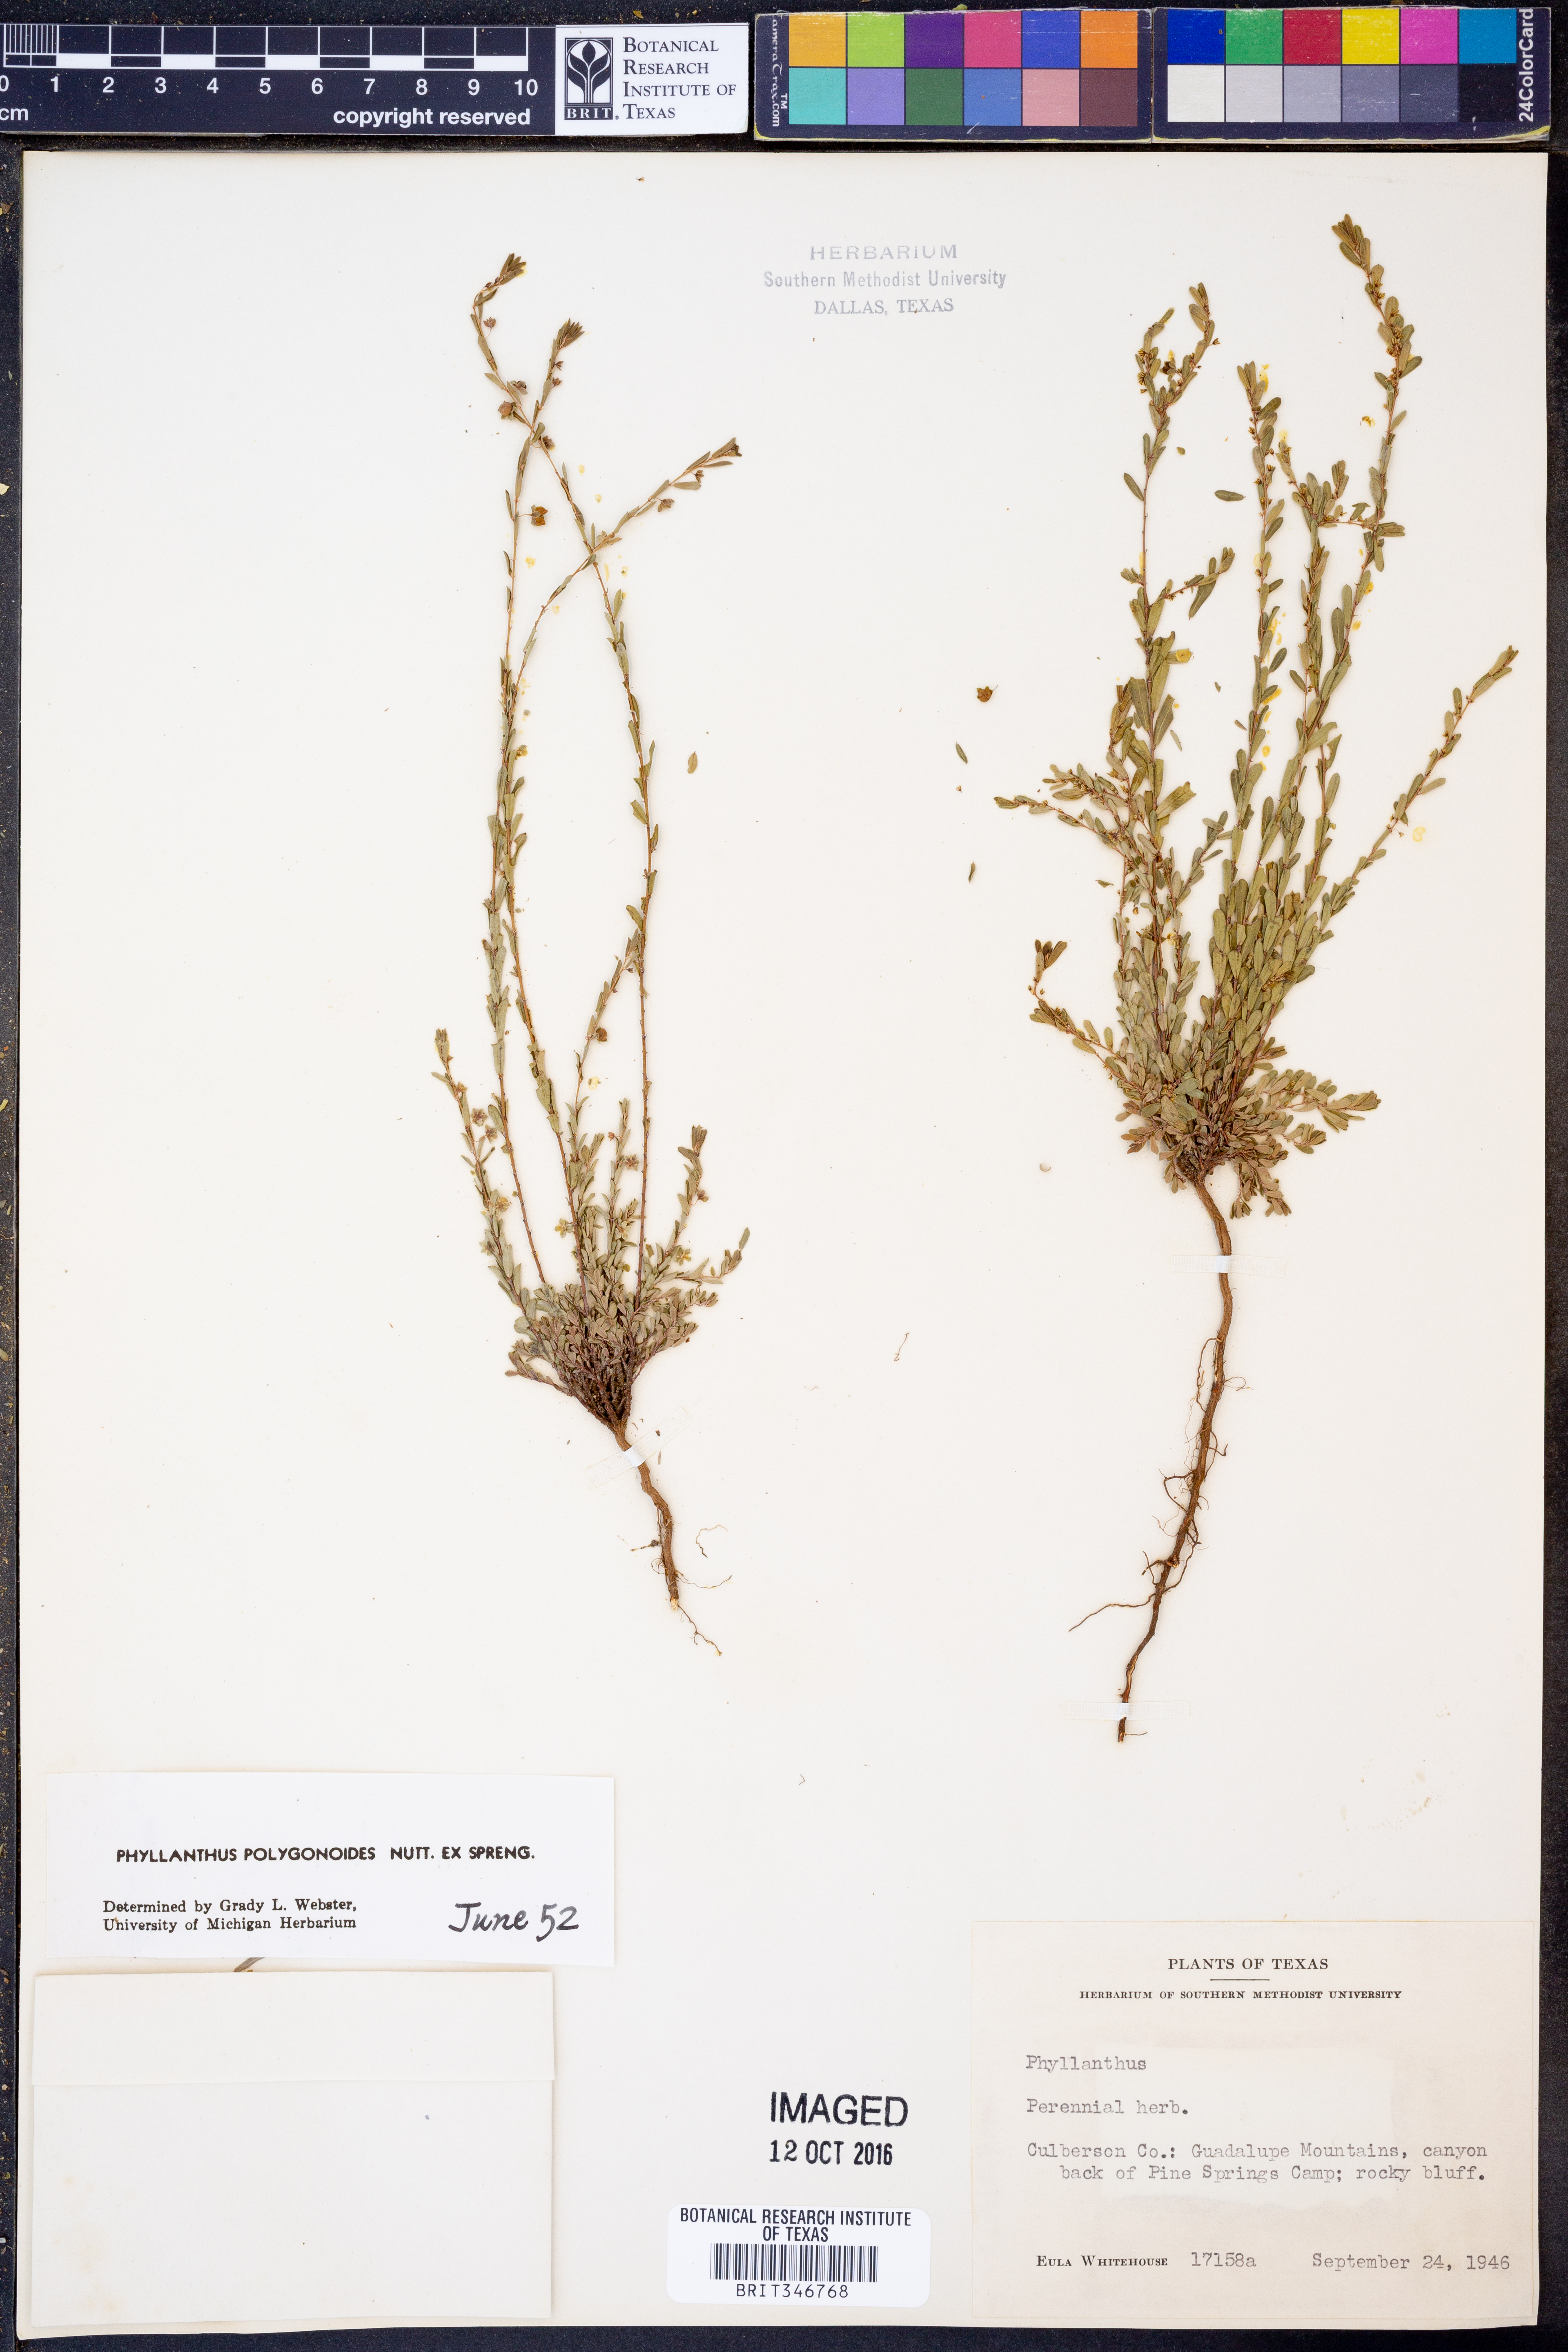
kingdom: Plantae
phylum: Tracheophyta
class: Magnoliopsida
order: Malpighiales
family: Phyllanthaceae
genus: Phyllanthus
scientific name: Phyllanthus polygonoides
